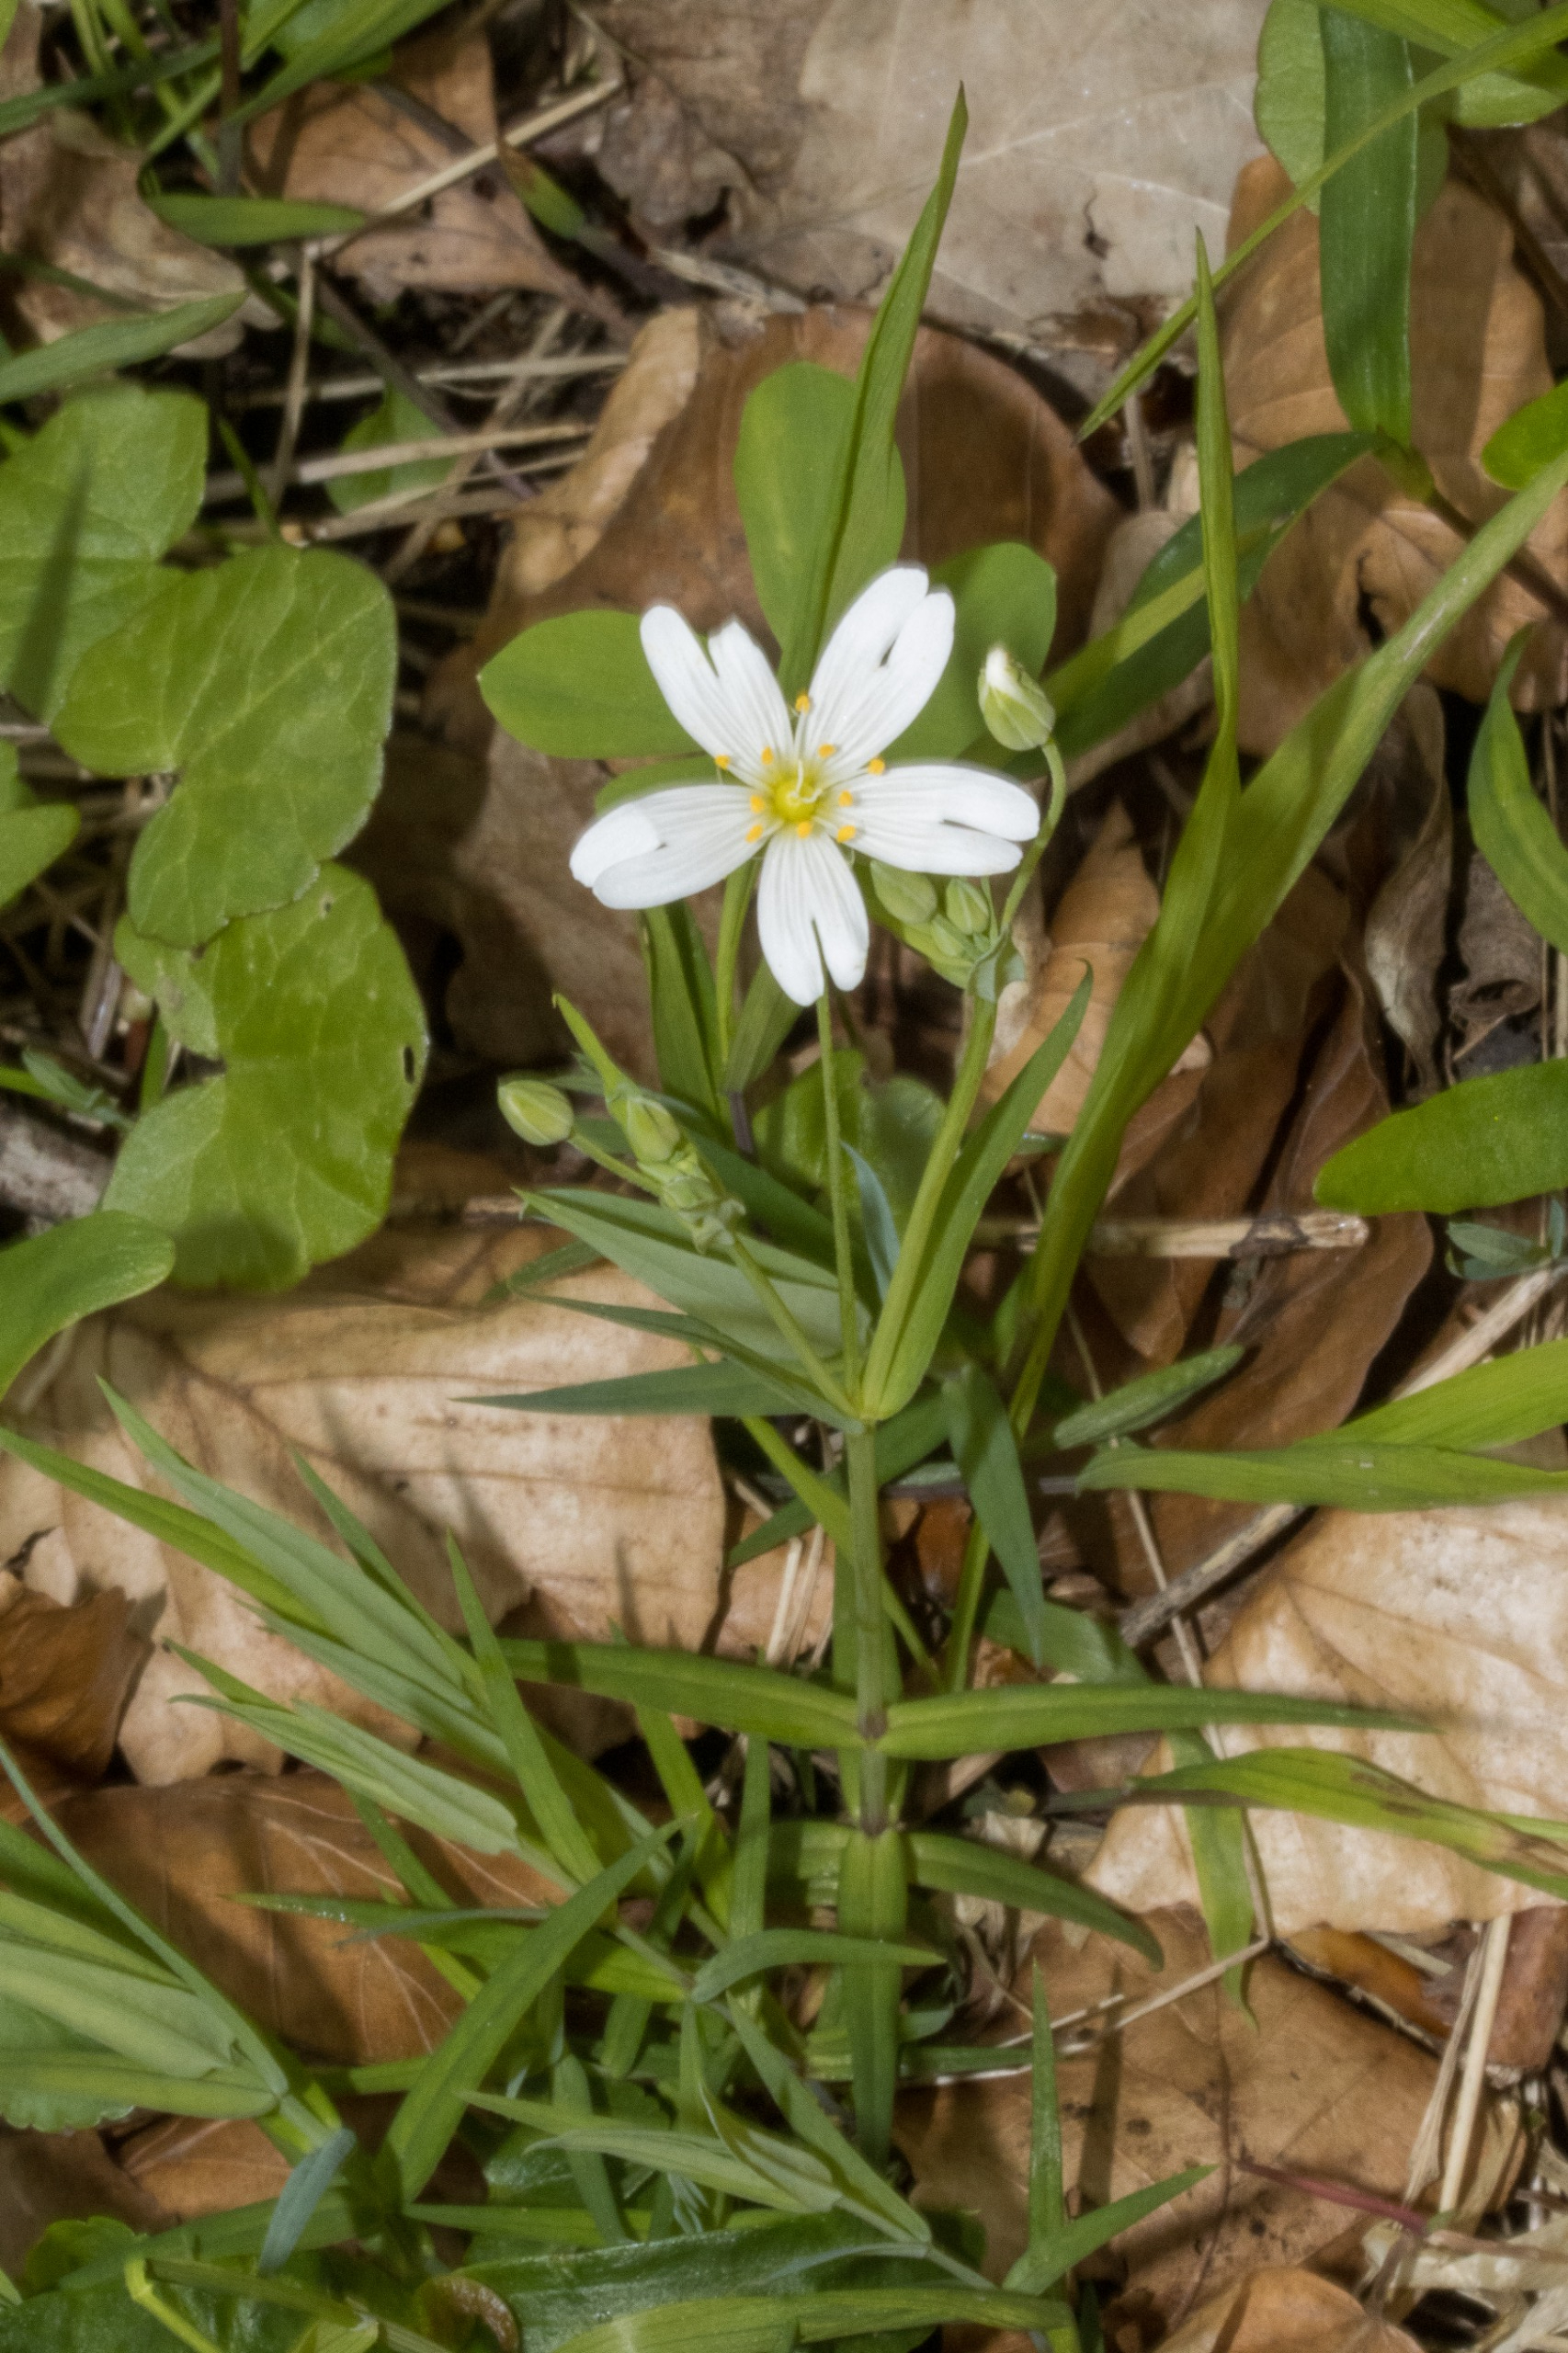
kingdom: Plantae
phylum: Tracheophyta
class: Magnoliopsida
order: Caryophyllales
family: Caryophyllaceae
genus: Rabelera
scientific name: Rabelera holostea
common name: Stor fladstjerne
